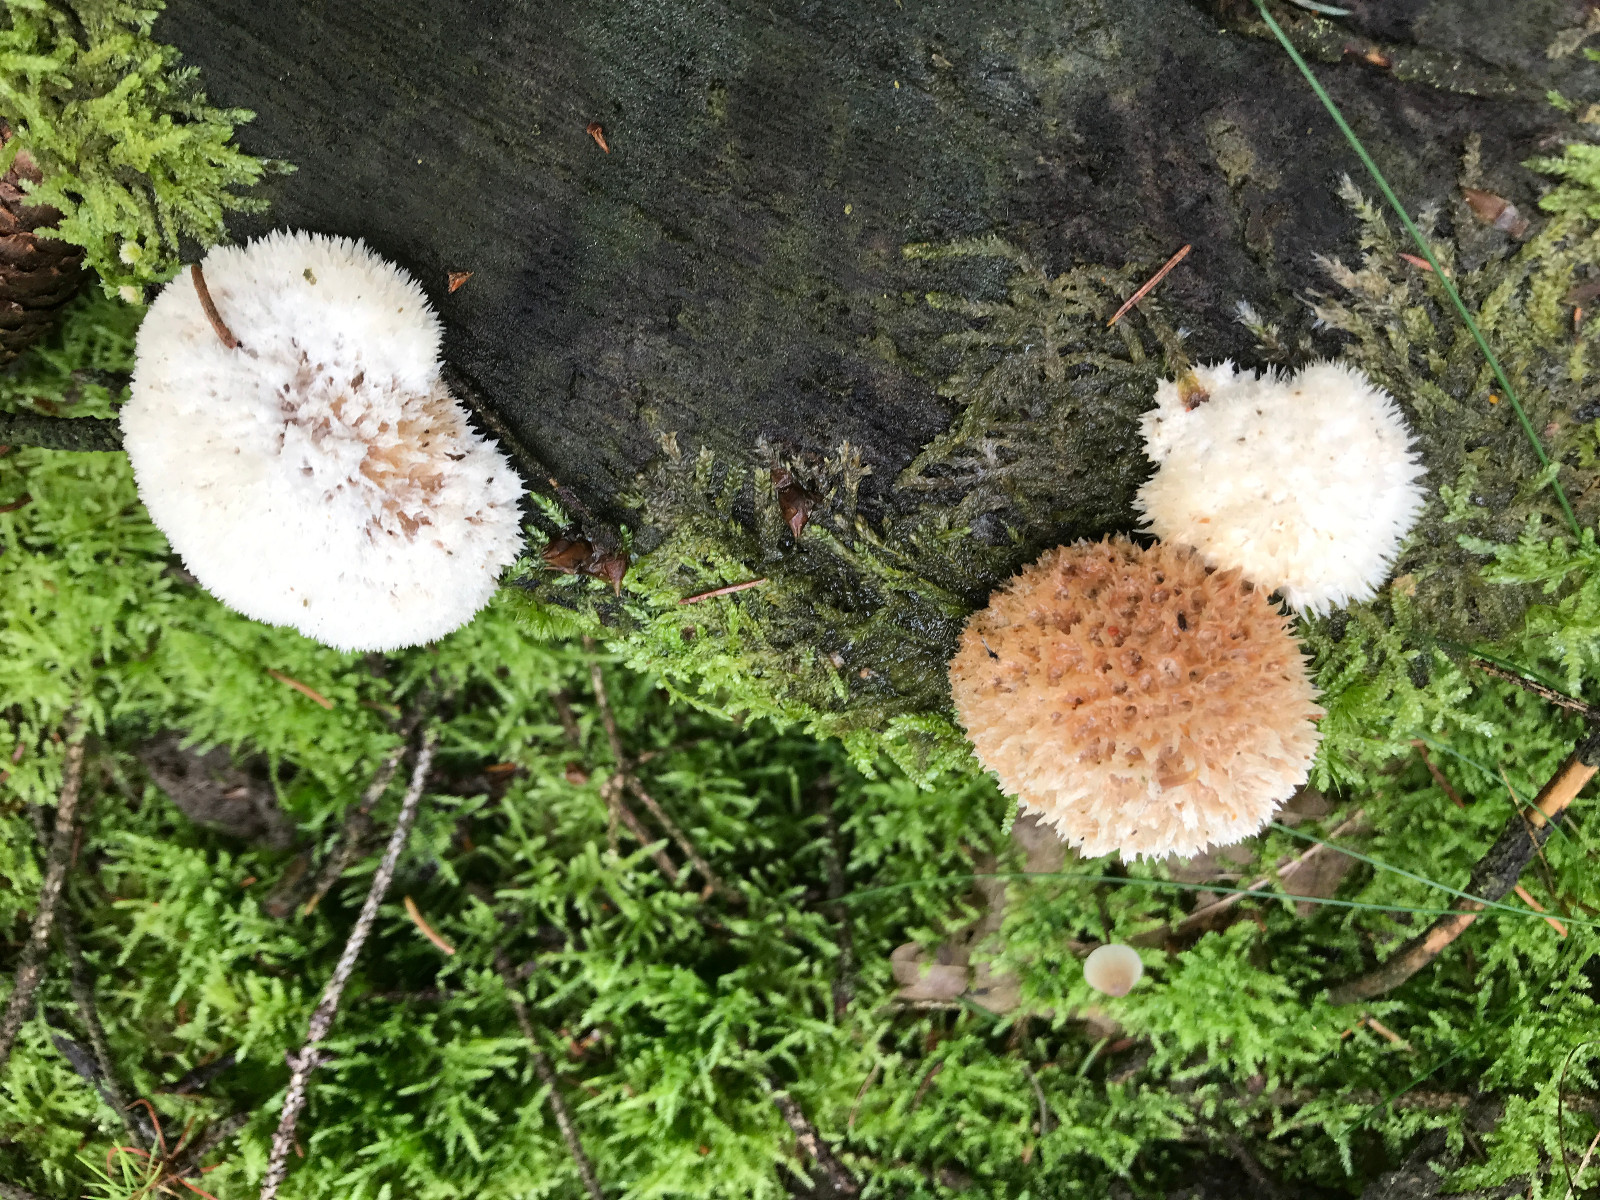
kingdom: Fungi
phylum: Basidiomycota
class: Agaricomycetes
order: Polyporales
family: Dacryobolaceae
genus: Postia
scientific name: Postia ptychogaster
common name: støvende kødporesvamp
